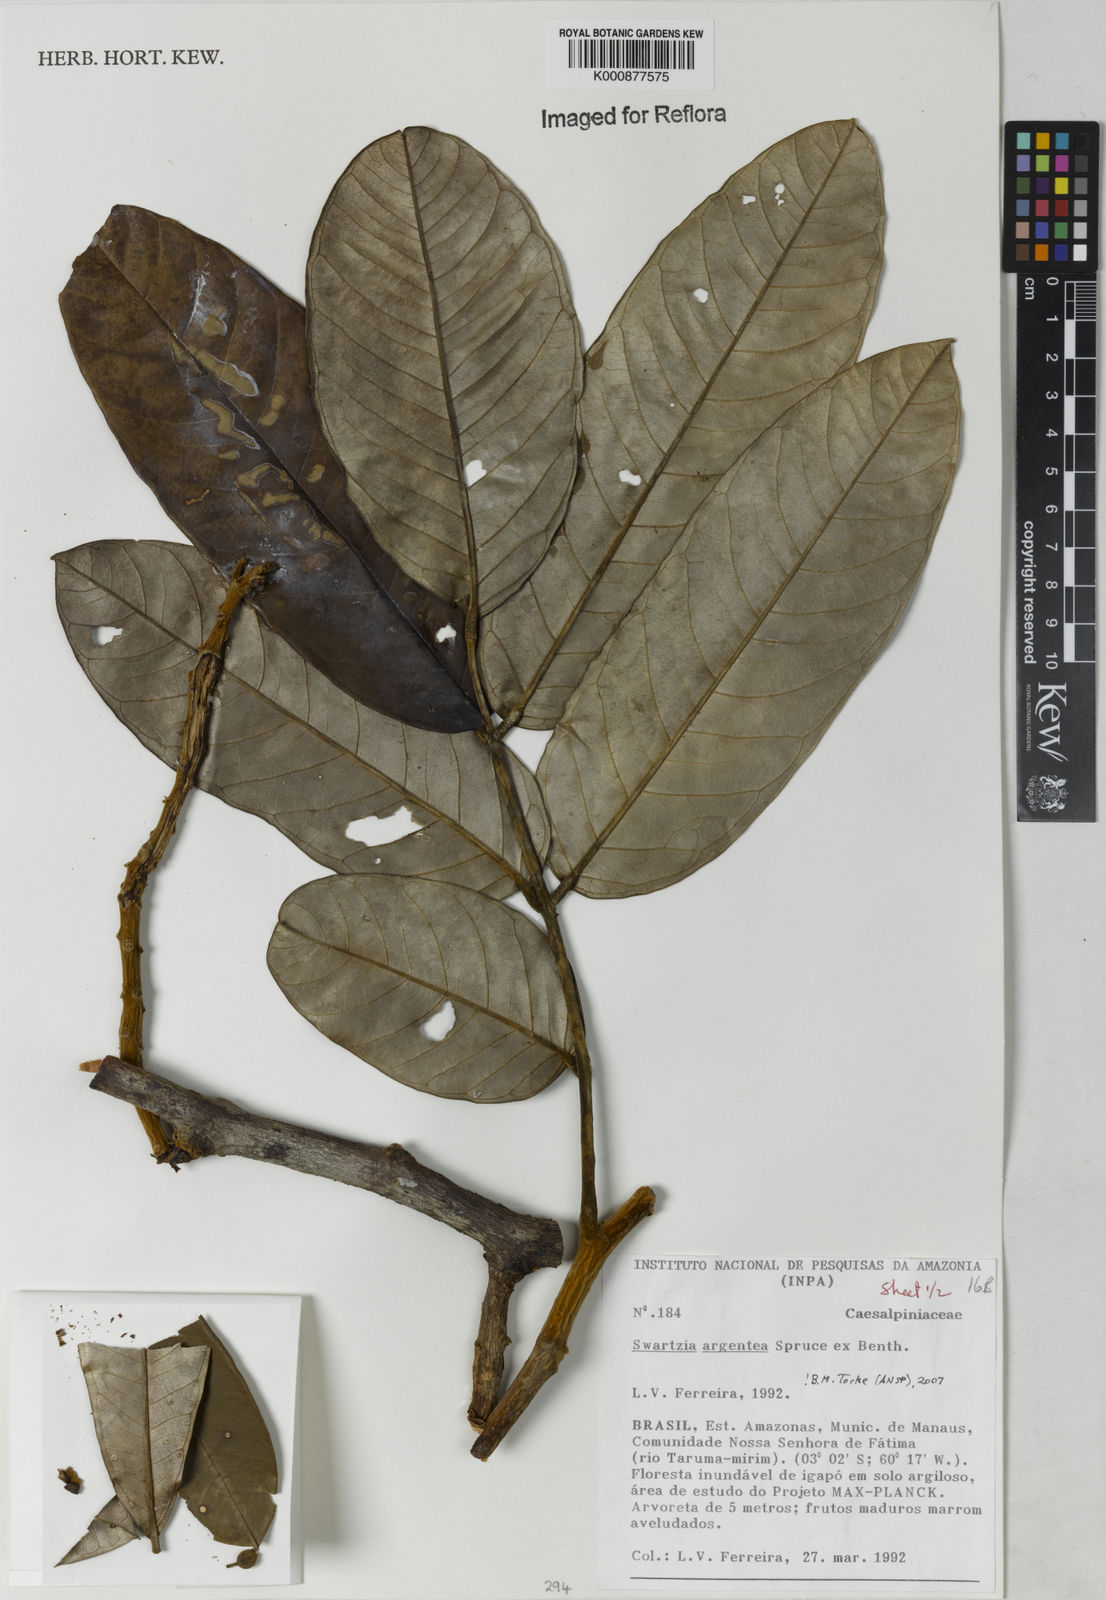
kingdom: Plantae
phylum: Tracheophyta
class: Magnoliopsida
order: Fabales
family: Fabaceae
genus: Swartzia
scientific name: Swartzia argentea
